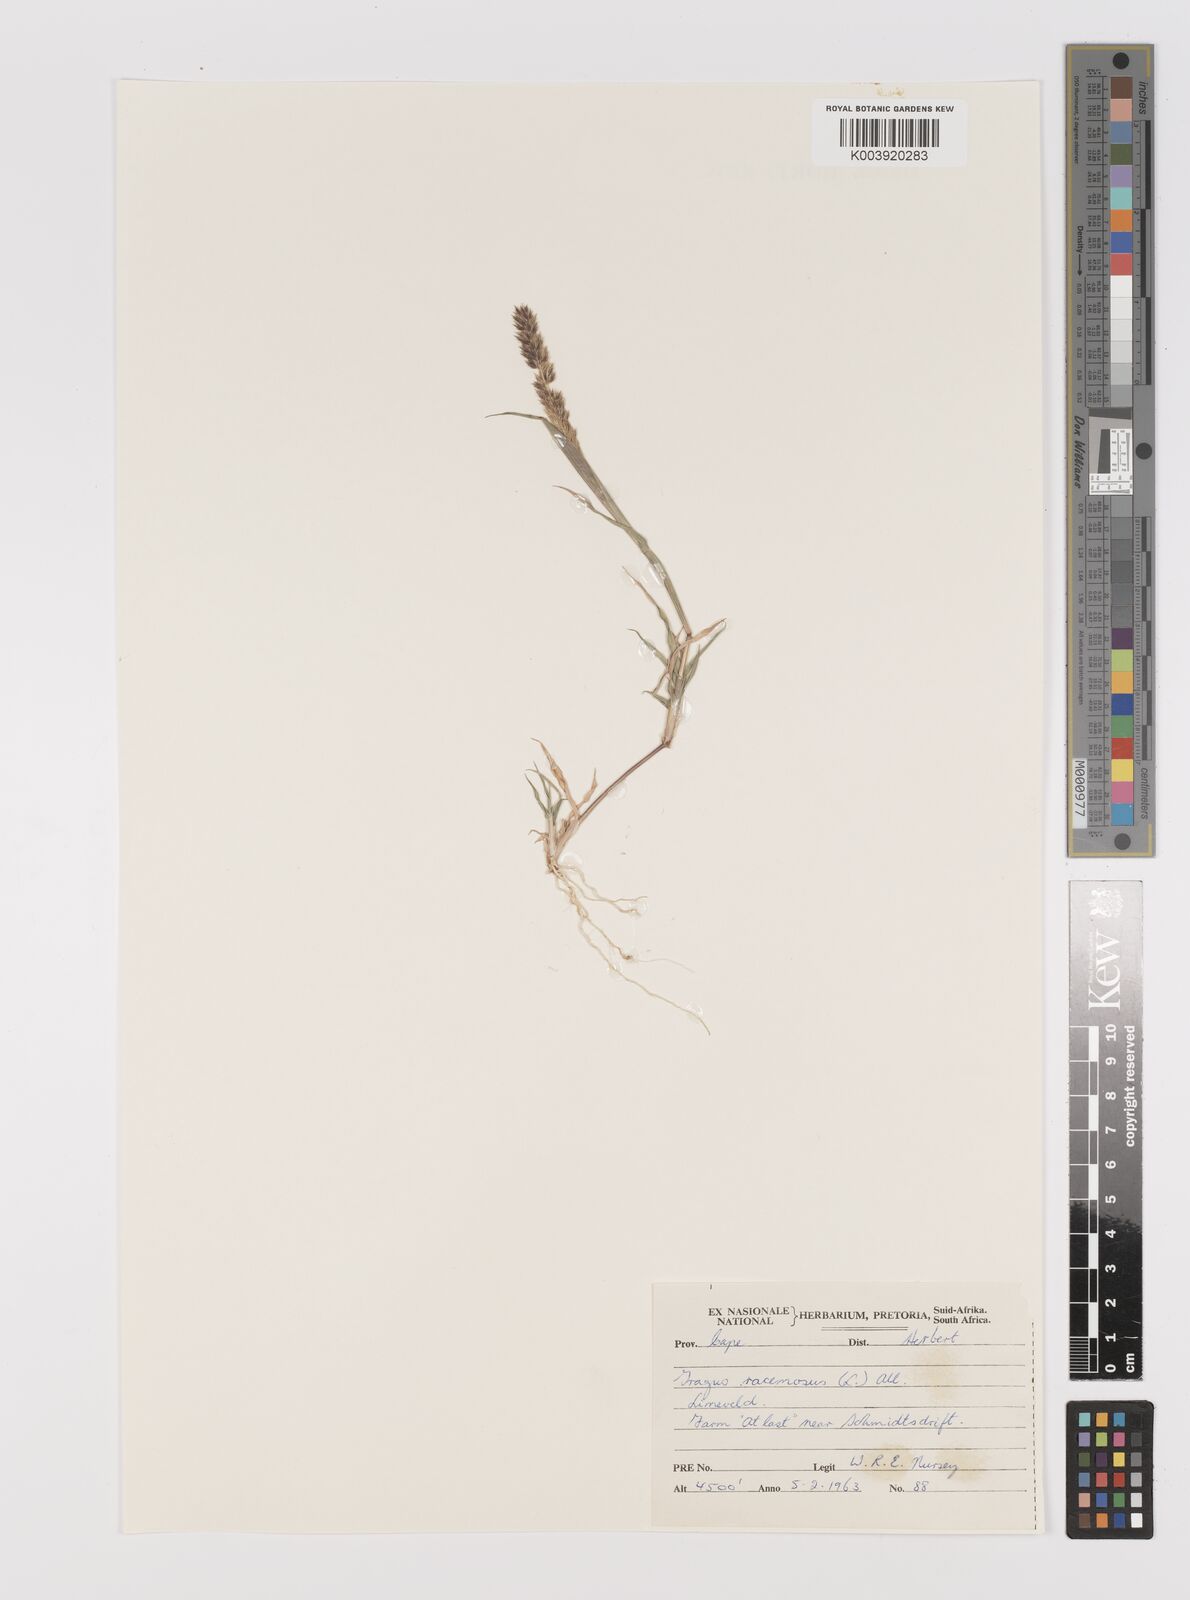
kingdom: Plantae
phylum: Tracheophyta
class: Liliopsida
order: Poales
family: Poaceae
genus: Tragus
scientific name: Tragus racemosus
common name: European bur-grass
